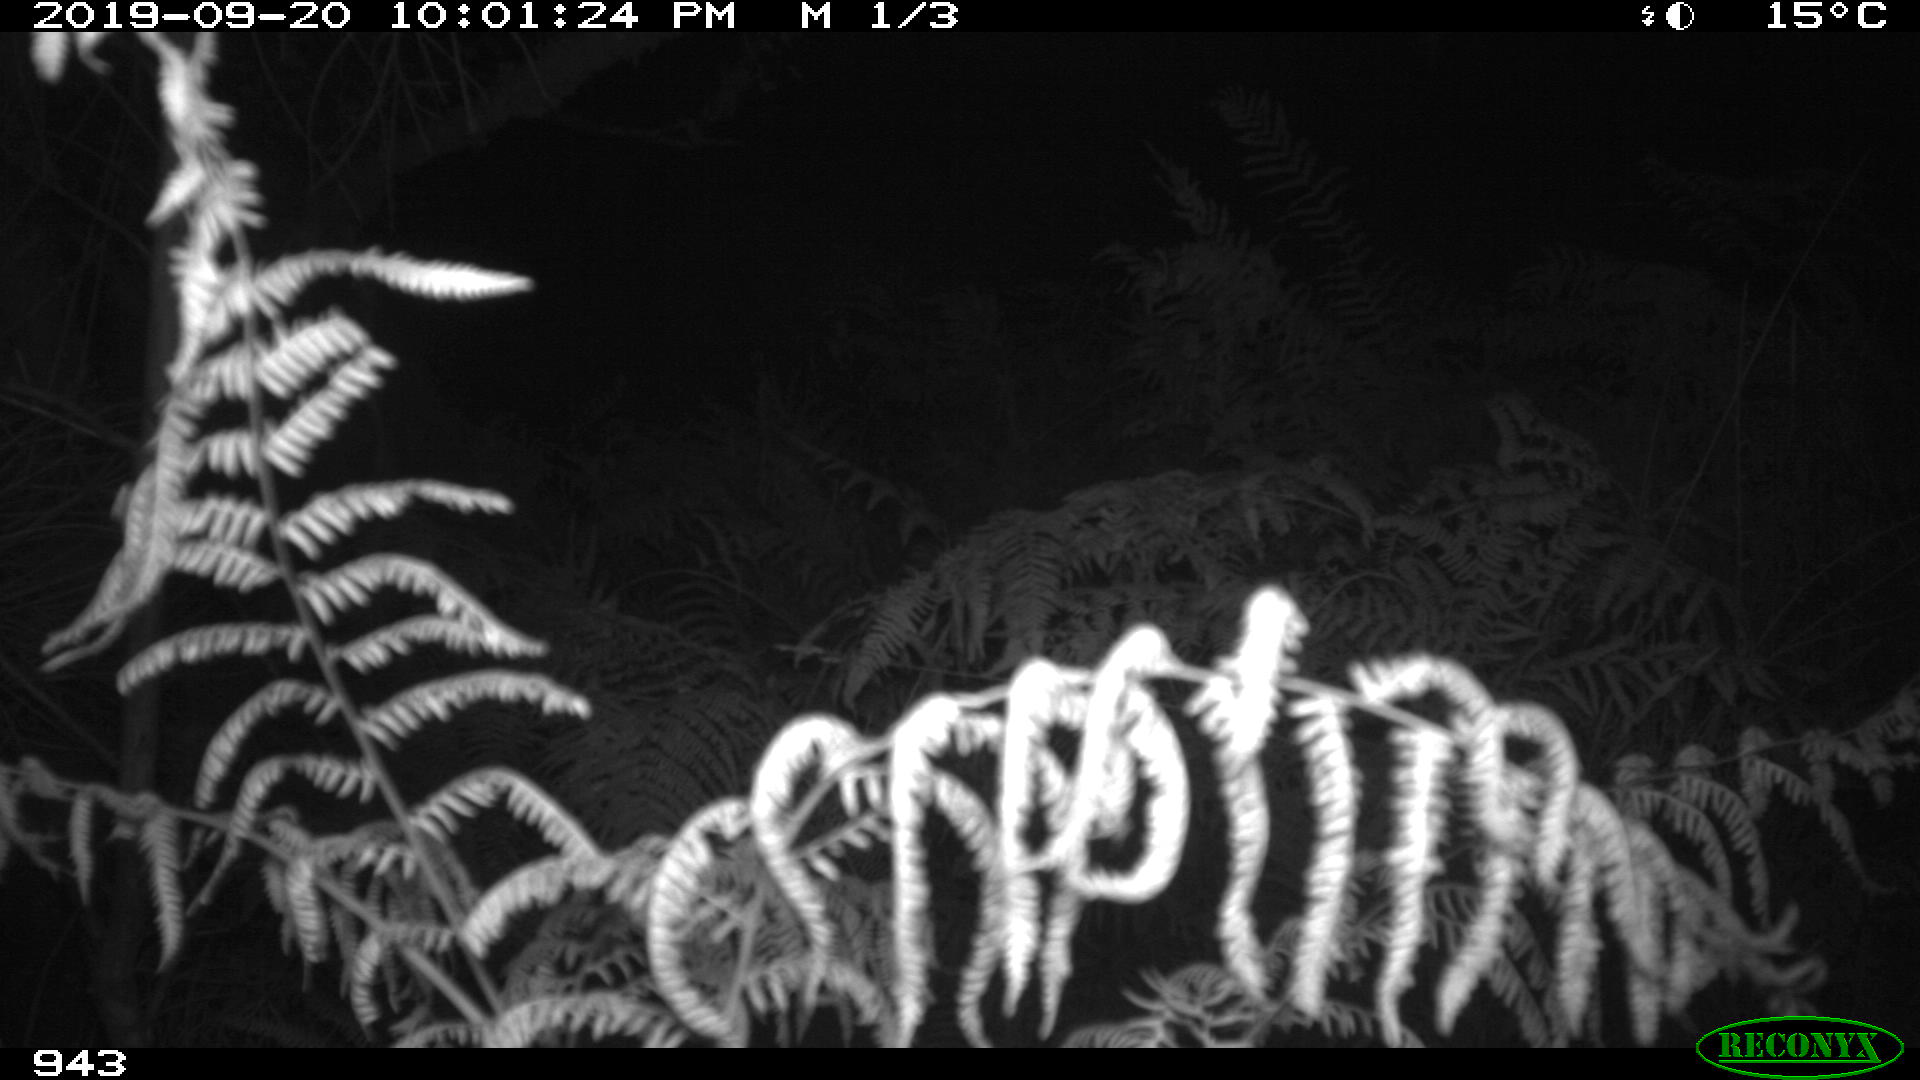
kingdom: Animalia
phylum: Chordata
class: Mammalia
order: Artiodactyla
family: Suidae
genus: Sus
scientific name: Sus scrofa
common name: Wild boar
